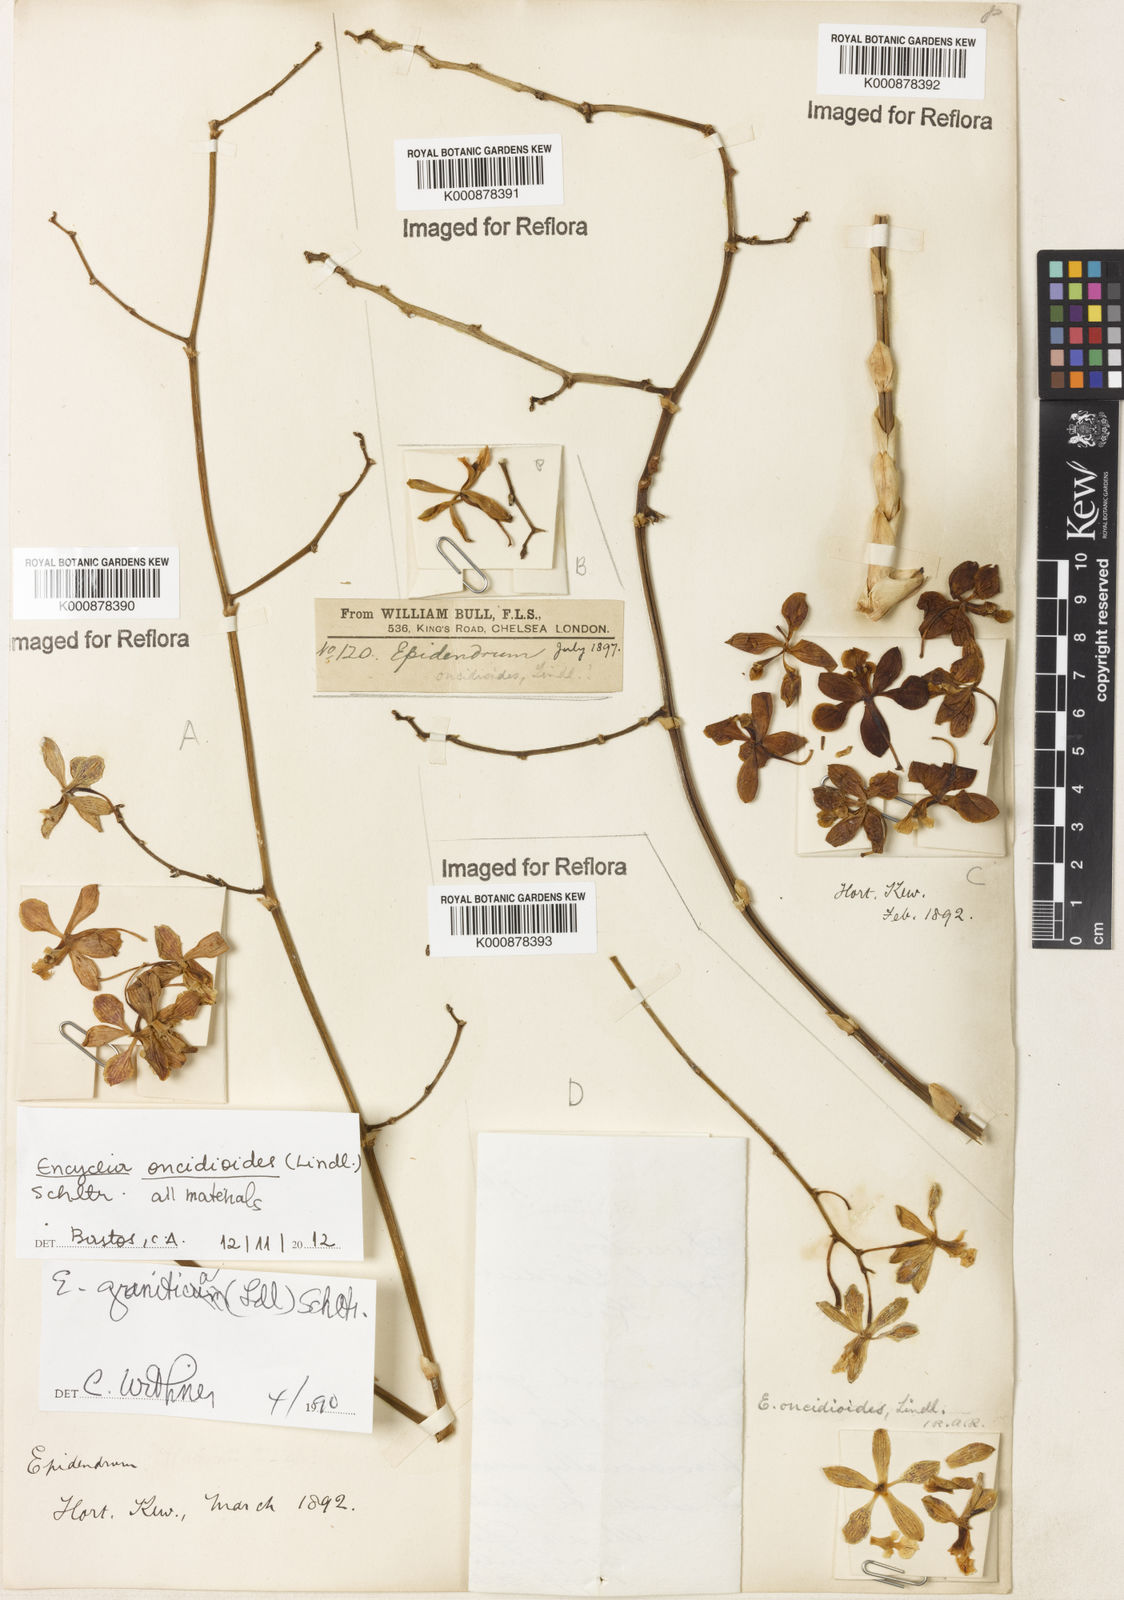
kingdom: Plantae
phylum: Tracheophyta
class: Liliopsida
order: Asparagales
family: Orchidaceae
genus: Encyclia
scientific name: Encyclia oncidioides
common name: Heavyfruit butterfly orchid
